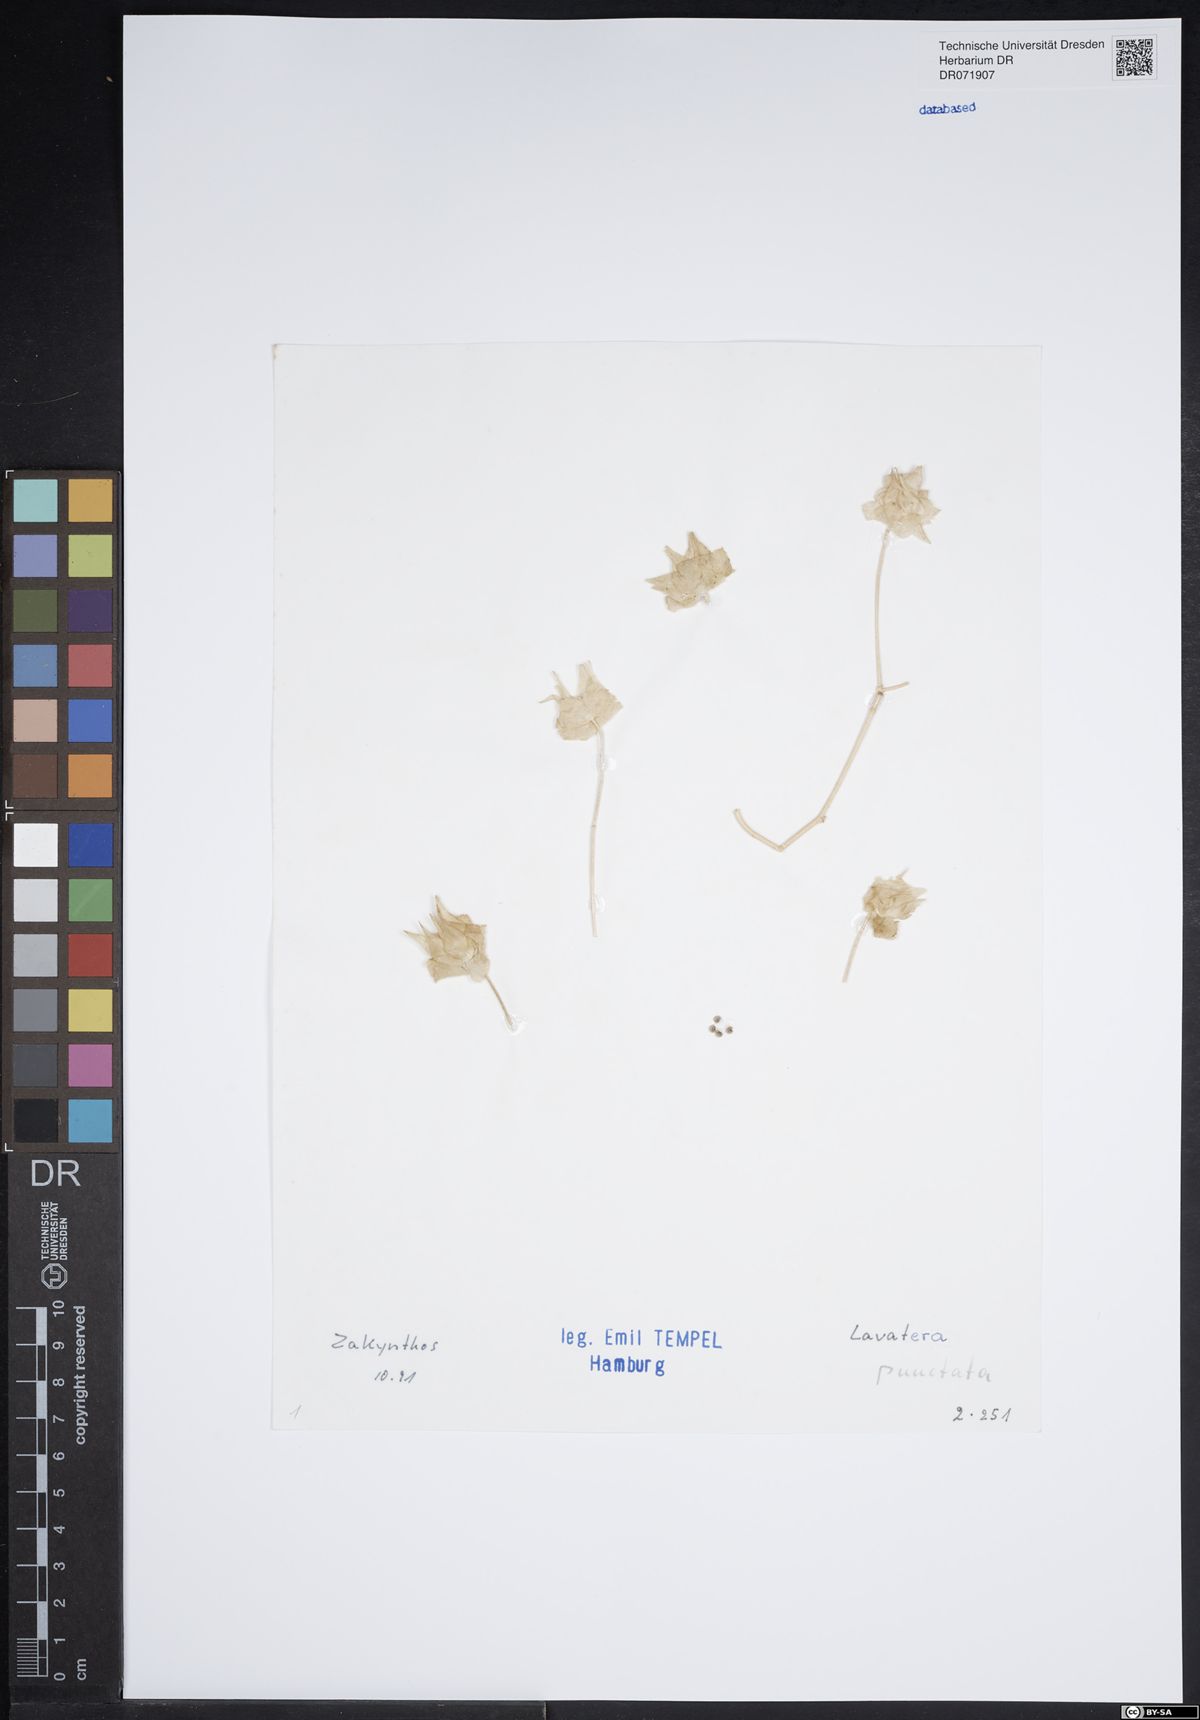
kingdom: Plantae
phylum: Tracheophyta
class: Magnoliopsida
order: Malvales
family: Malvaceae
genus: Malva
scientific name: Malva punctata
